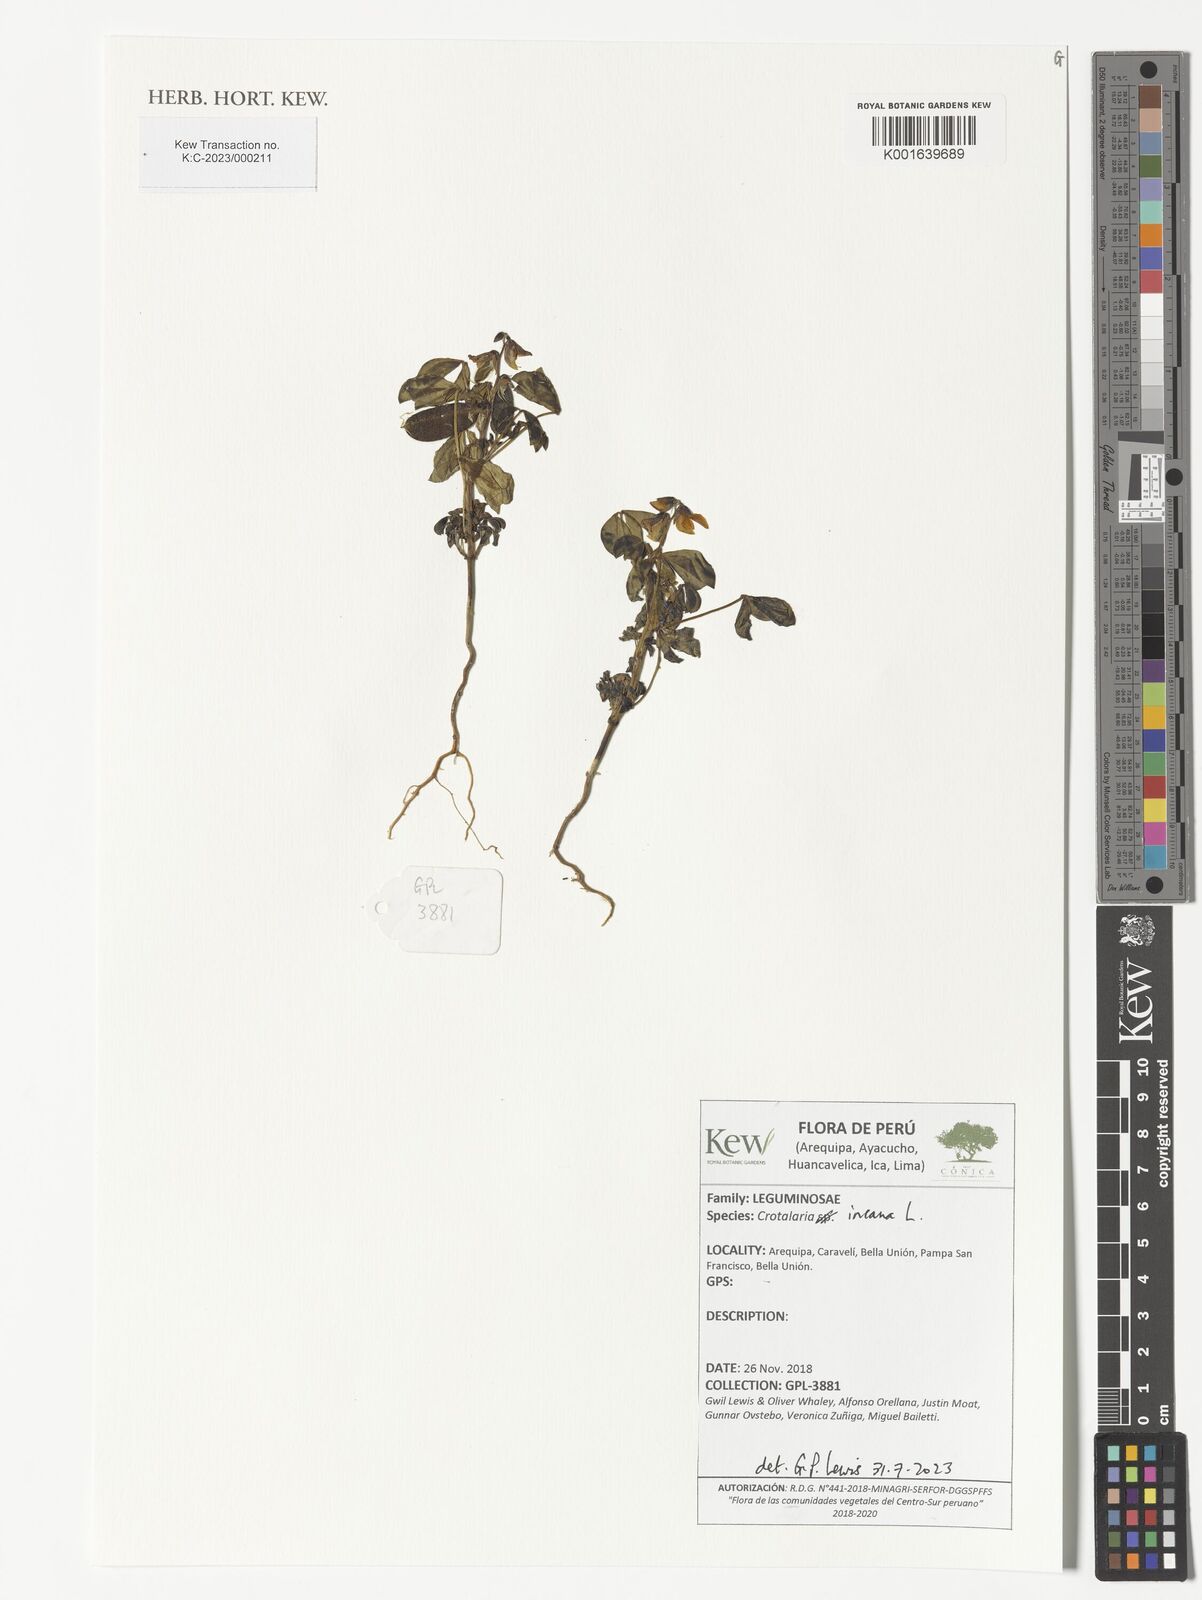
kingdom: Plantae
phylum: Tracheophyta
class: Magnoliopsida
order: Fabales
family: Fabaceae
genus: Crotalaria
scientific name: Crotalaria incana
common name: Shakeshake
